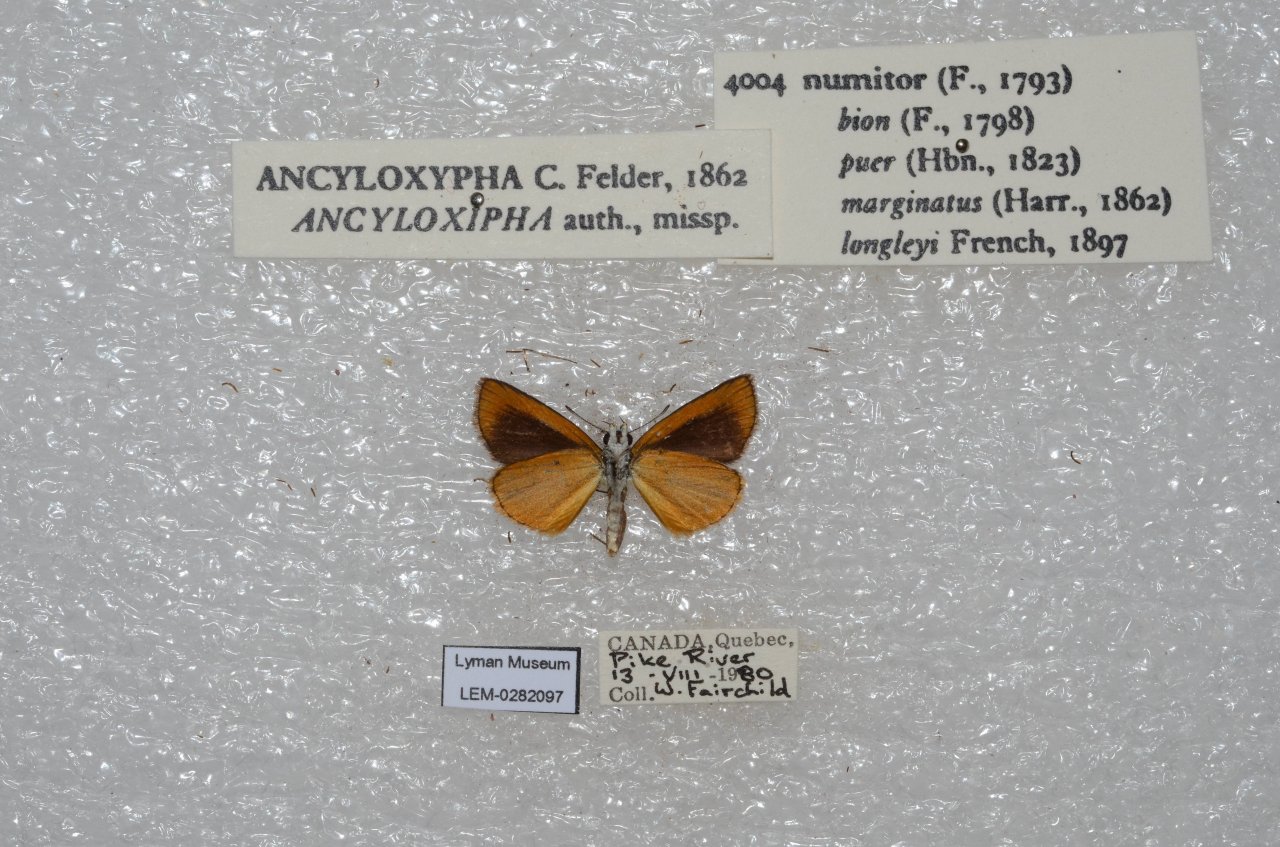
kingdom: Animalia
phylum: Arthropoda
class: Insecta
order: Lepidoptera
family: Hesperiidae
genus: Ancyloxypha
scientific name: Ancyloxypha numitor
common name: Least Skipper
